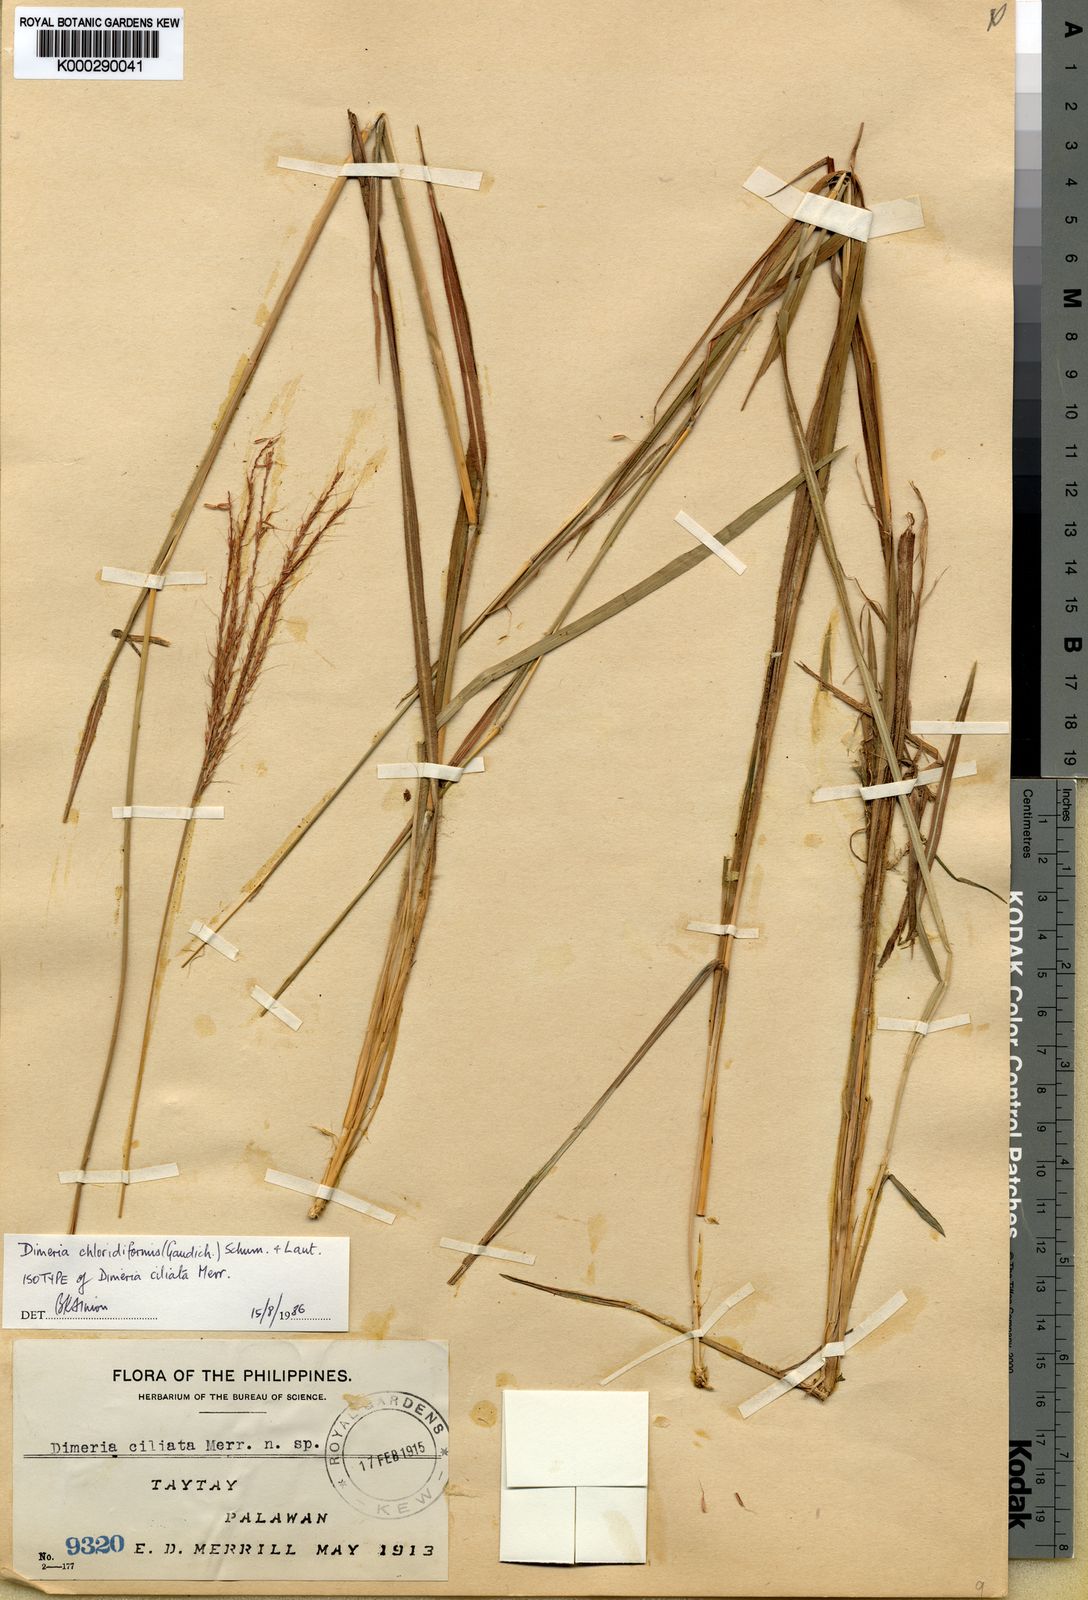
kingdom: Plantae
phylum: Tracheophyta
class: Liliopsida
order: Poales
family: Poaceae
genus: Dimeria
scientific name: Dimeria chloridiformis
